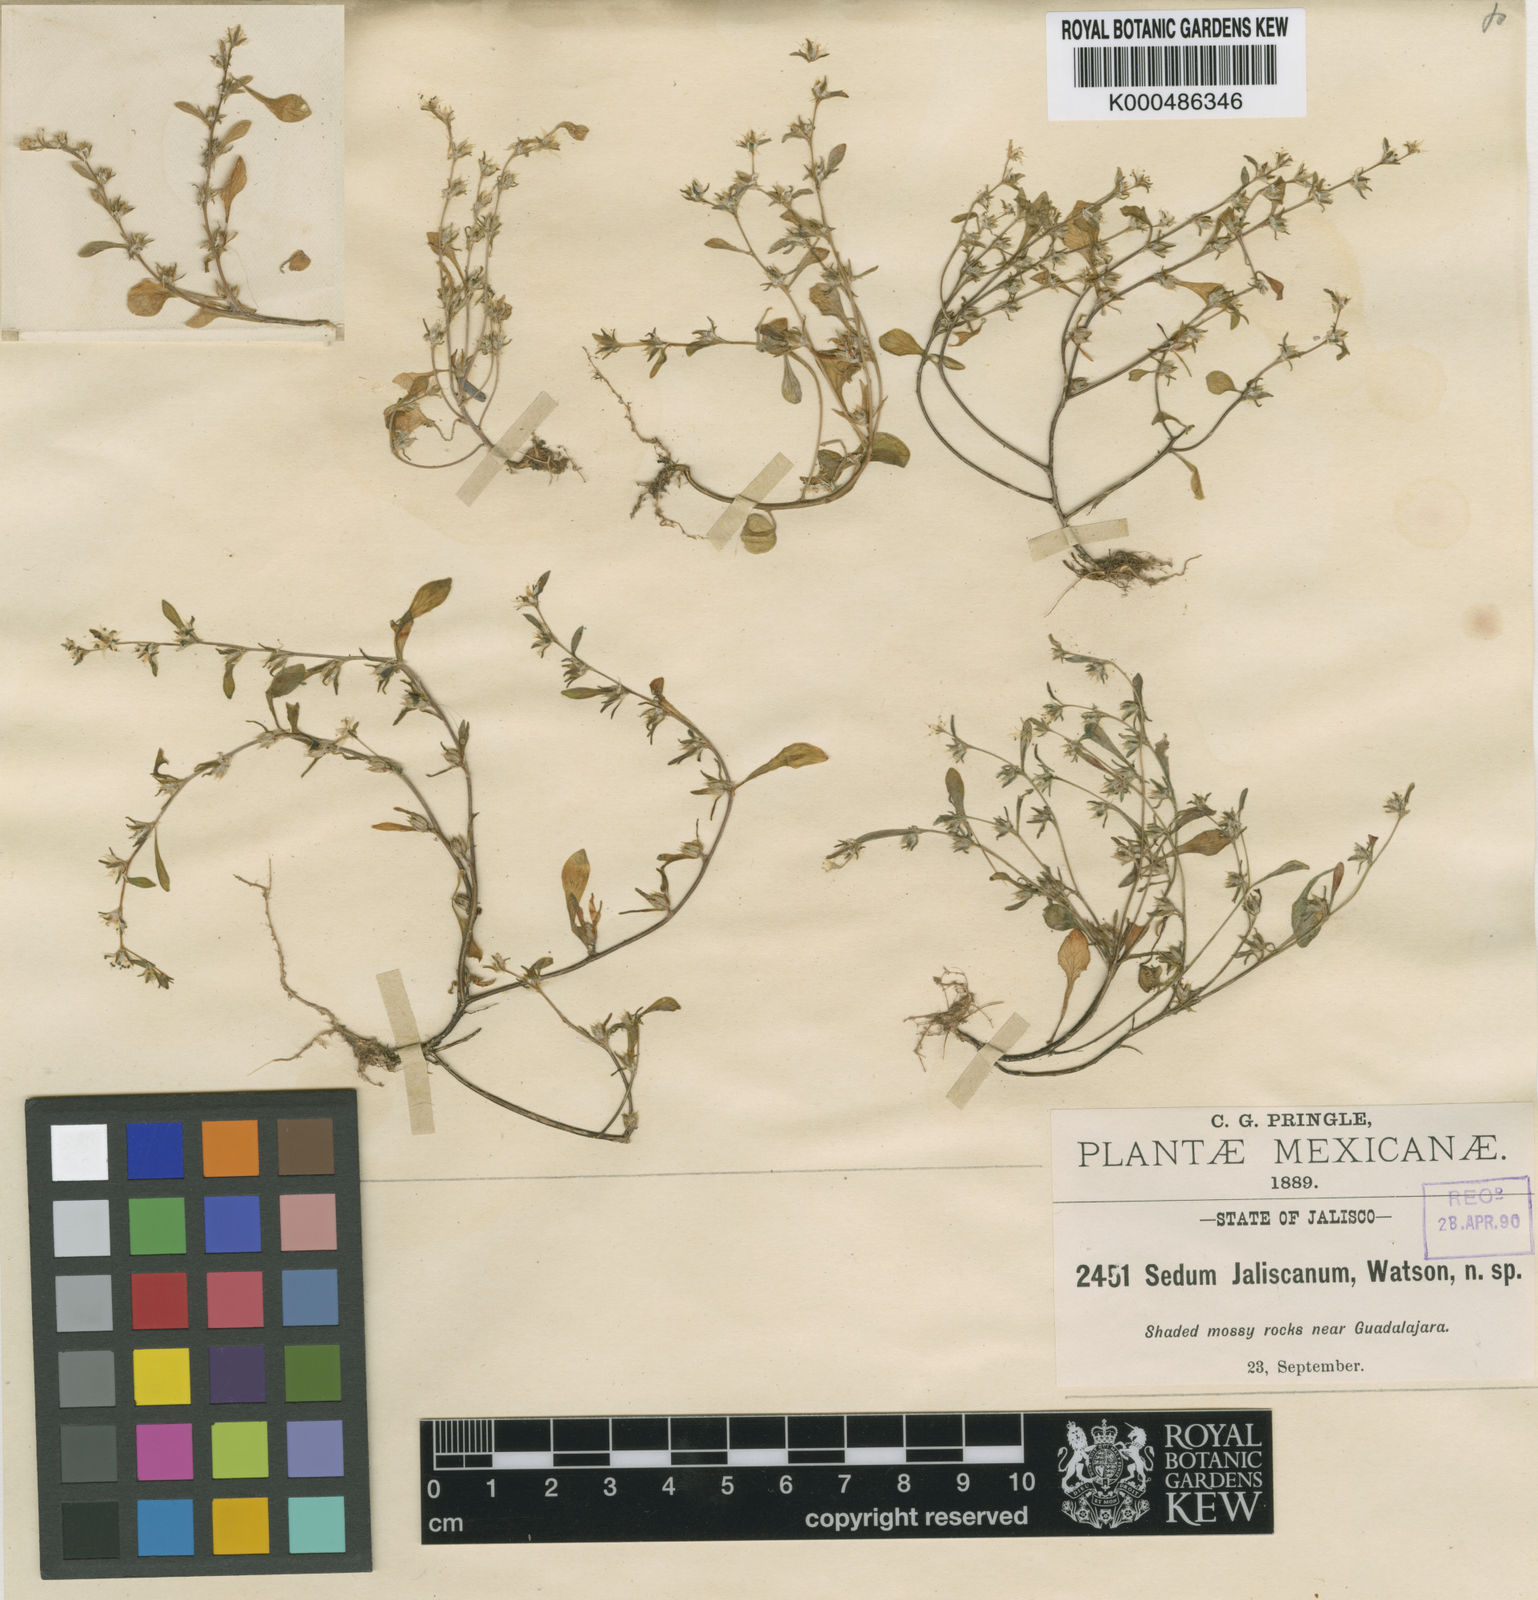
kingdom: Plantae
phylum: Tracheophyta
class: Magnoliopsida
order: Saxifragales
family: Crassulaceae
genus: Sedum
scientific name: Sedum jaliscanum
